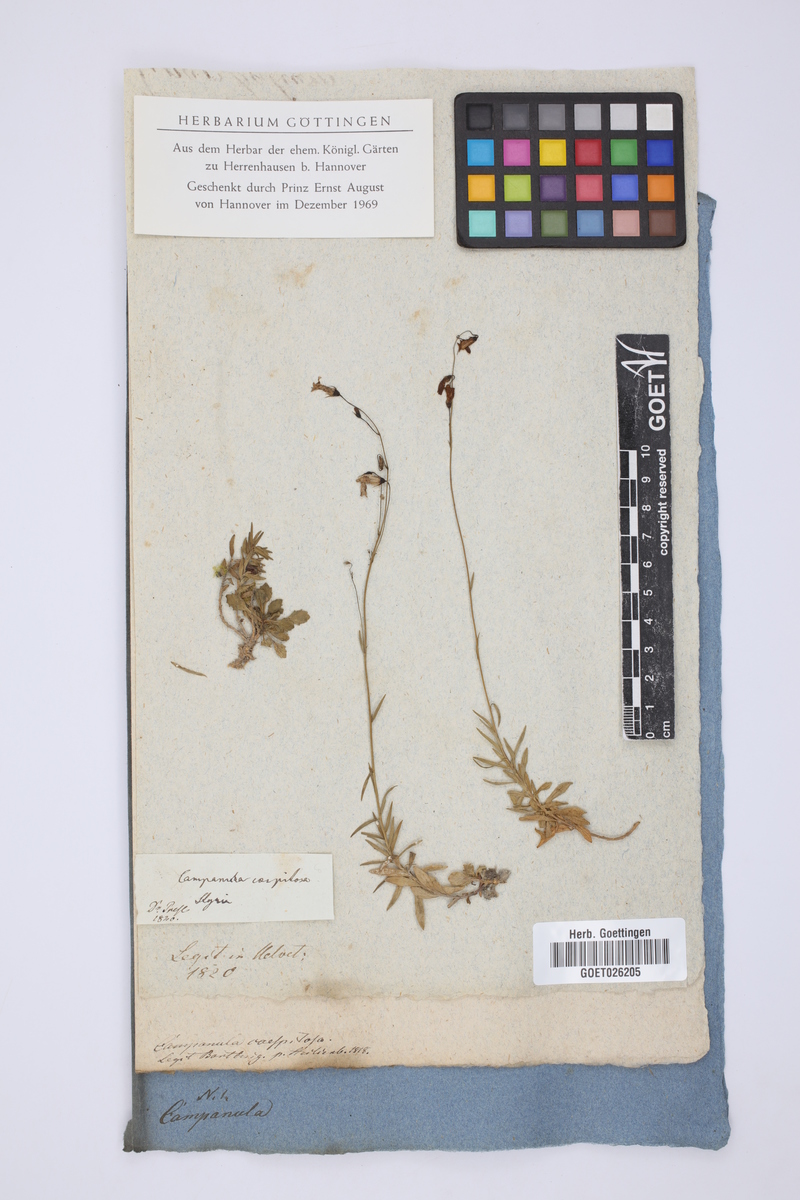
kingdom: Plantae
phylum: Tracheophyta
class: Magnoliopsida
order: Asterales
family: Campanulaceae
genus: Campanula
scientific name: Campanula cespitosa
